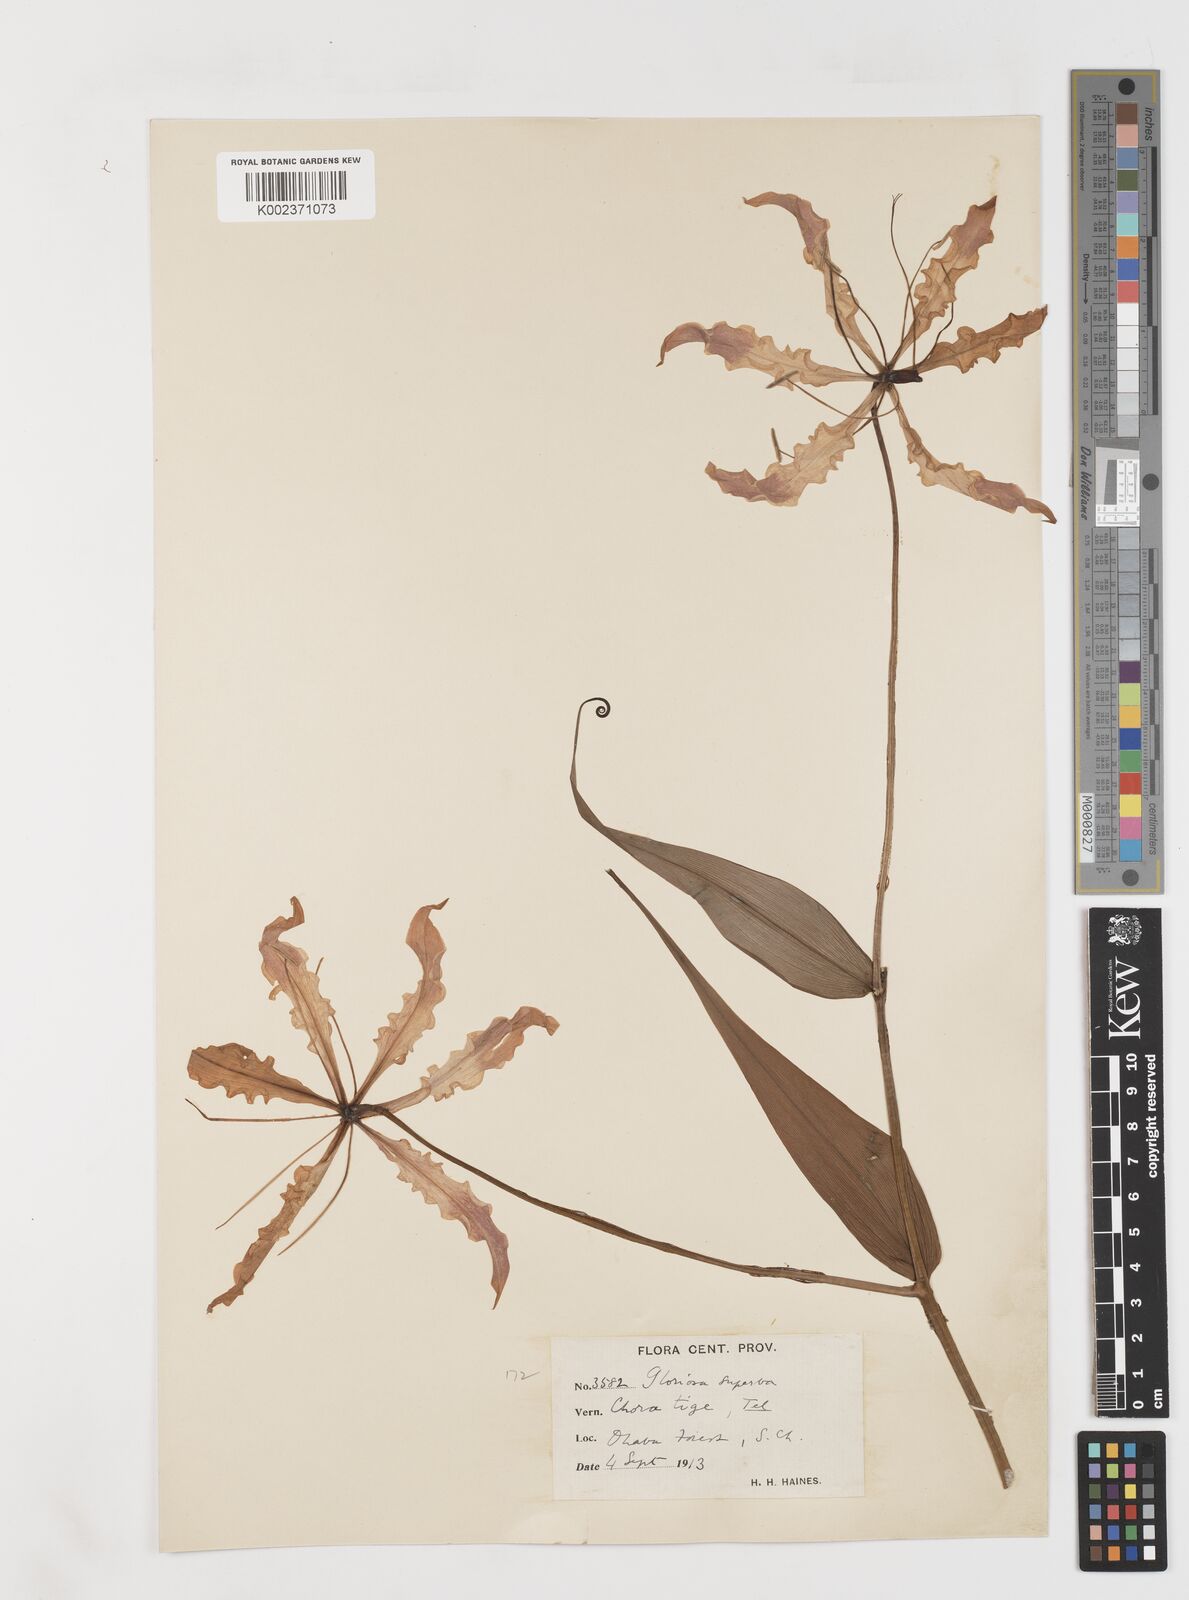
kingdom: Plantae
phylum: Tracheophyta
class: Liliopsida
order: Liliales
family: Colchicaceae
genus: Gloriosa
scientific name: Gloriosa superba
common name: Flame lily
